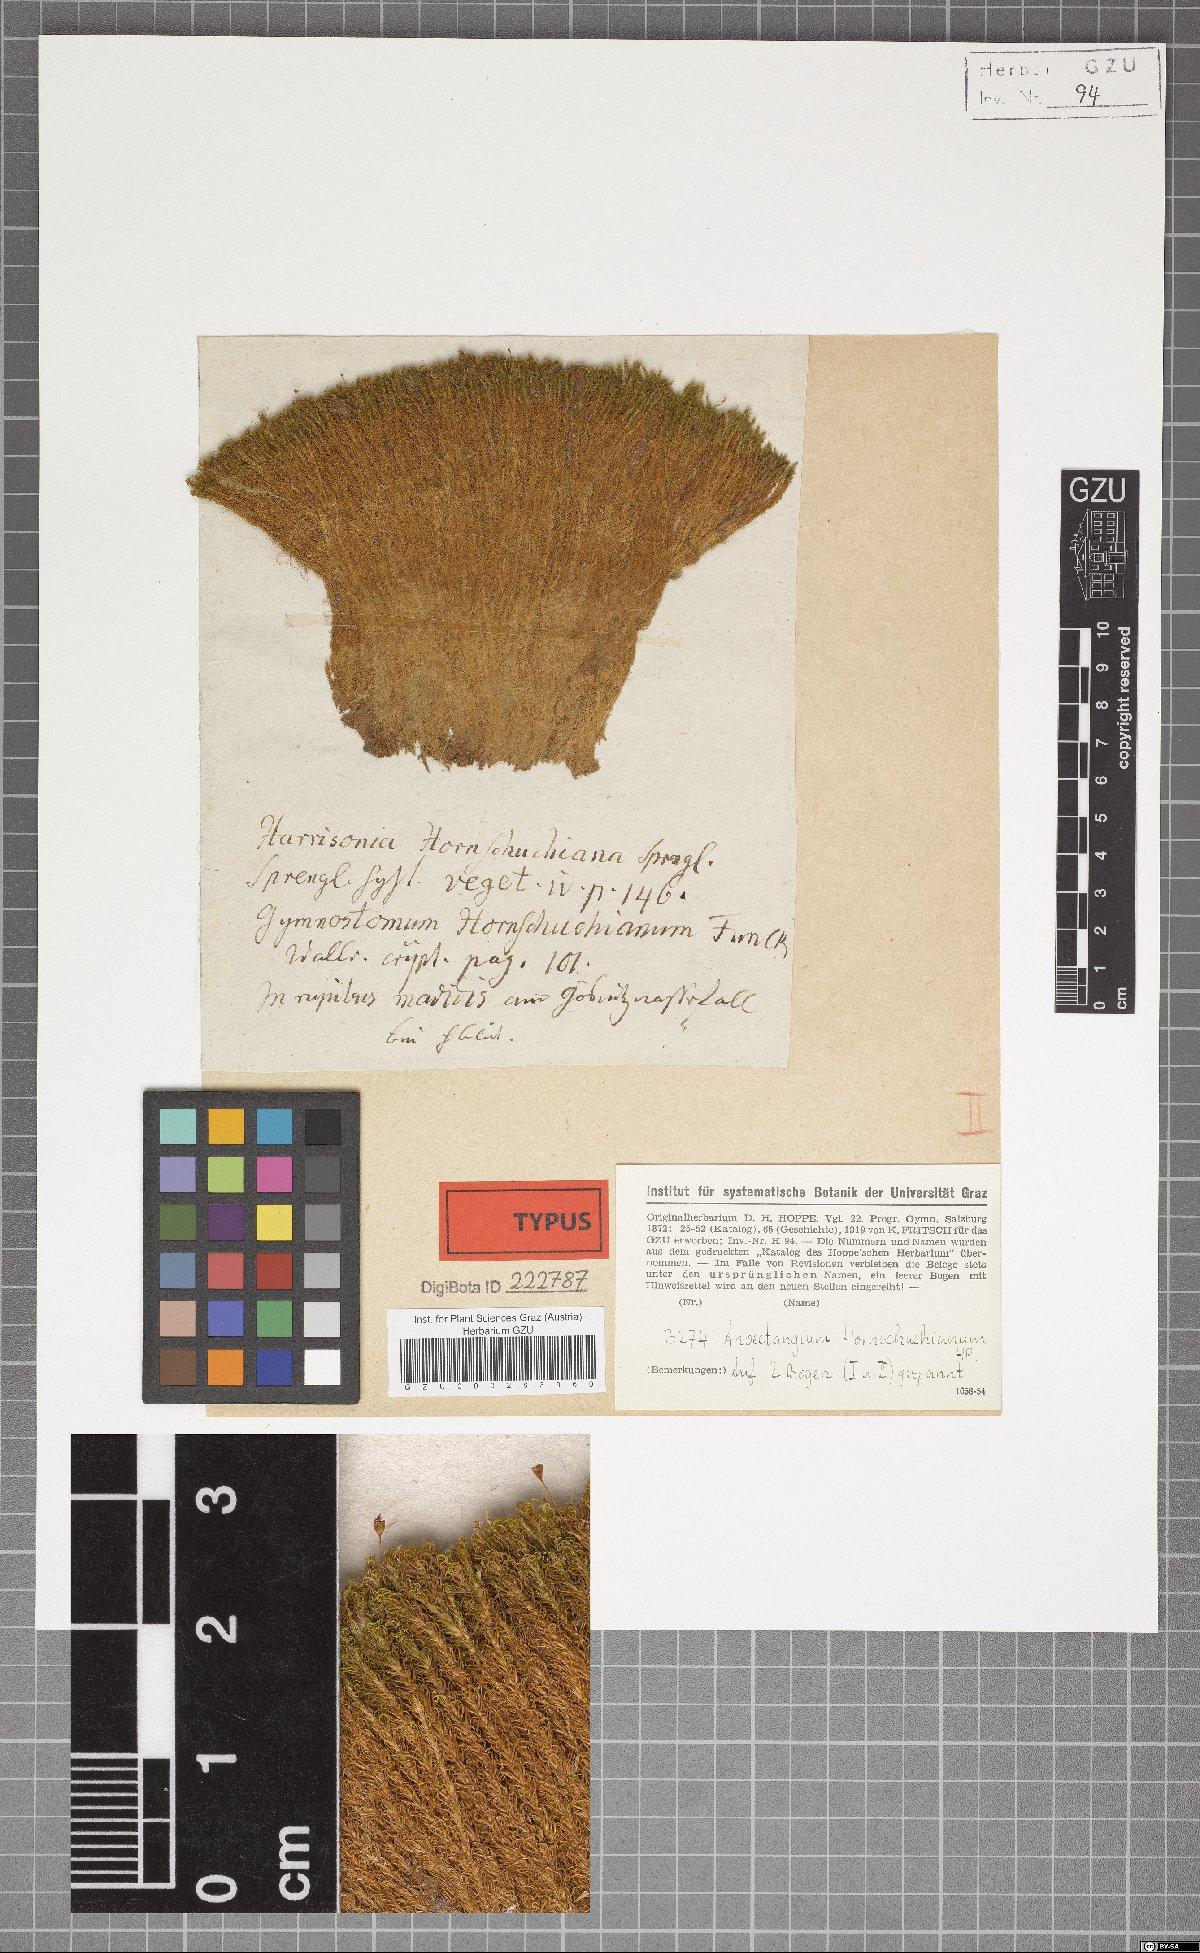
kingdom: Plantae
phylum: Bryophyta
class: Bryopsida
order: Pottiales
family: Pottiaceae
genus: Molendoa
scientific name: Molendoa hornschuchiana
